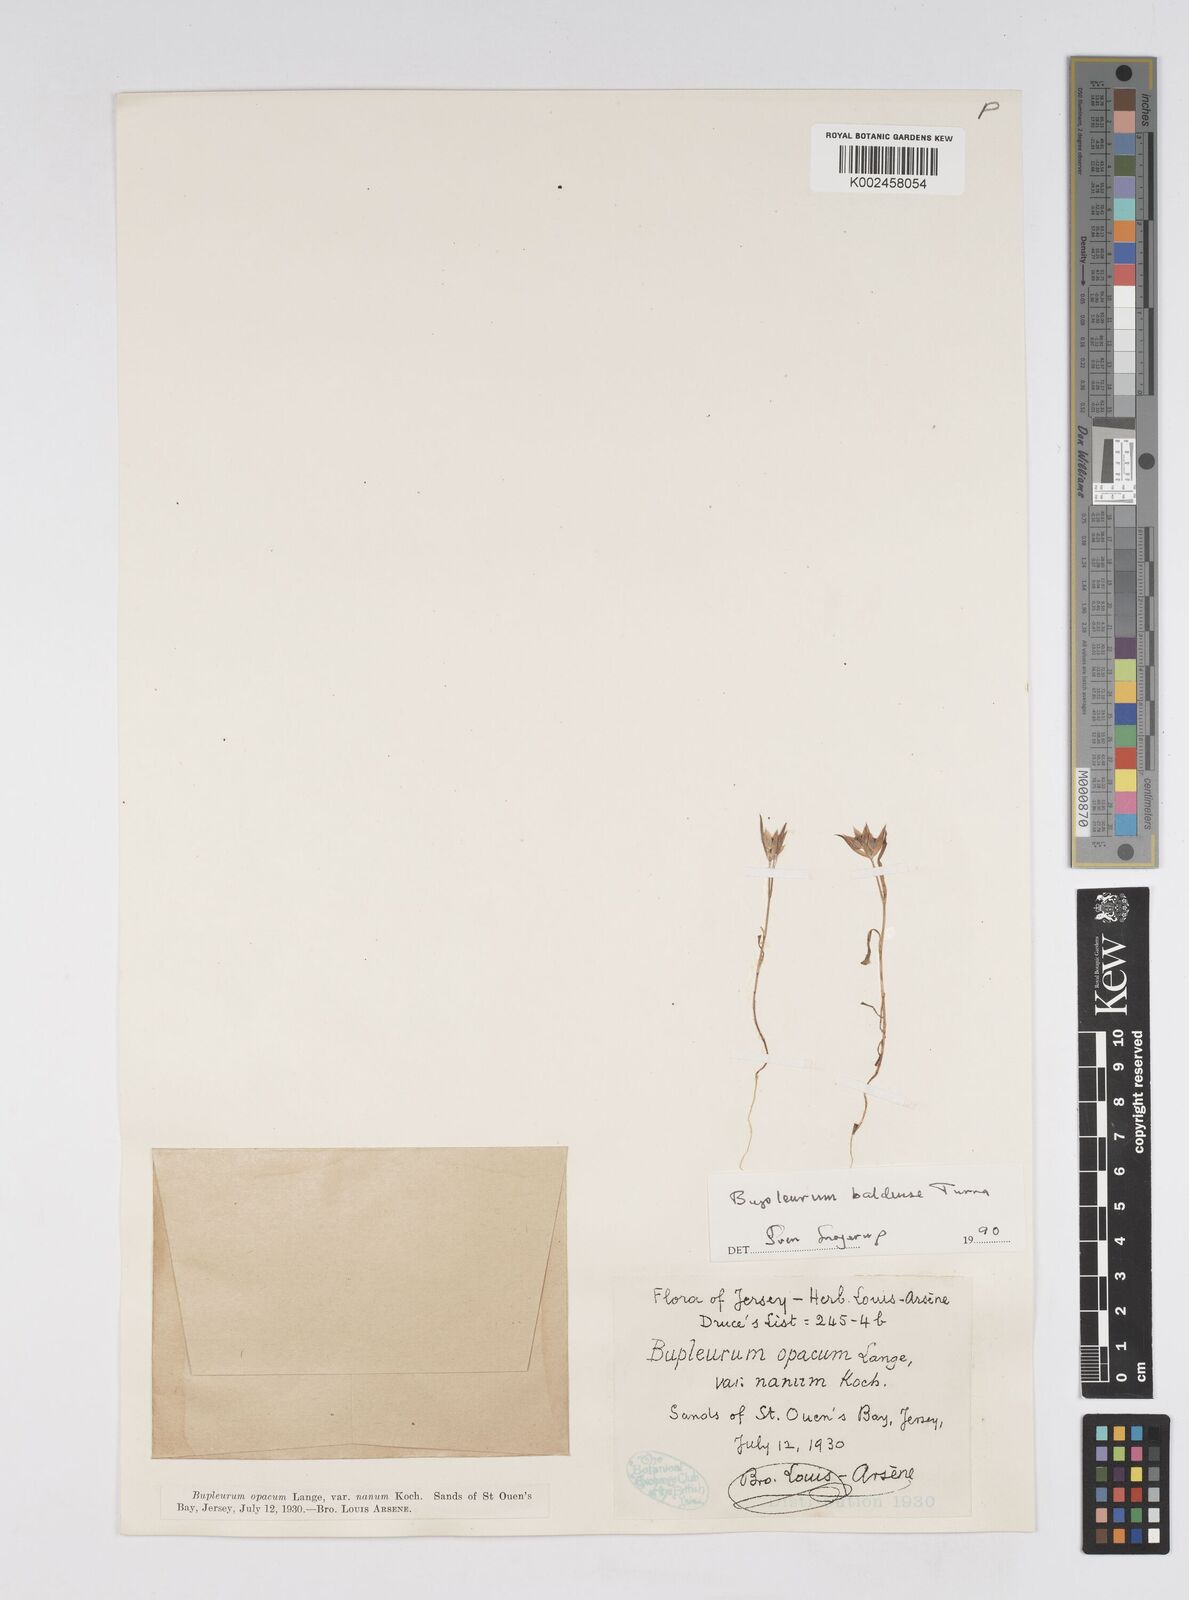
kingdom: Plantae
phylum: Tracheophyta
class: Magnoliopsida
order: Apiales
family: Apiaceae
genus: Bupleurum
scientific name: Bupleurum baldense
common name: Small hare's-ear
